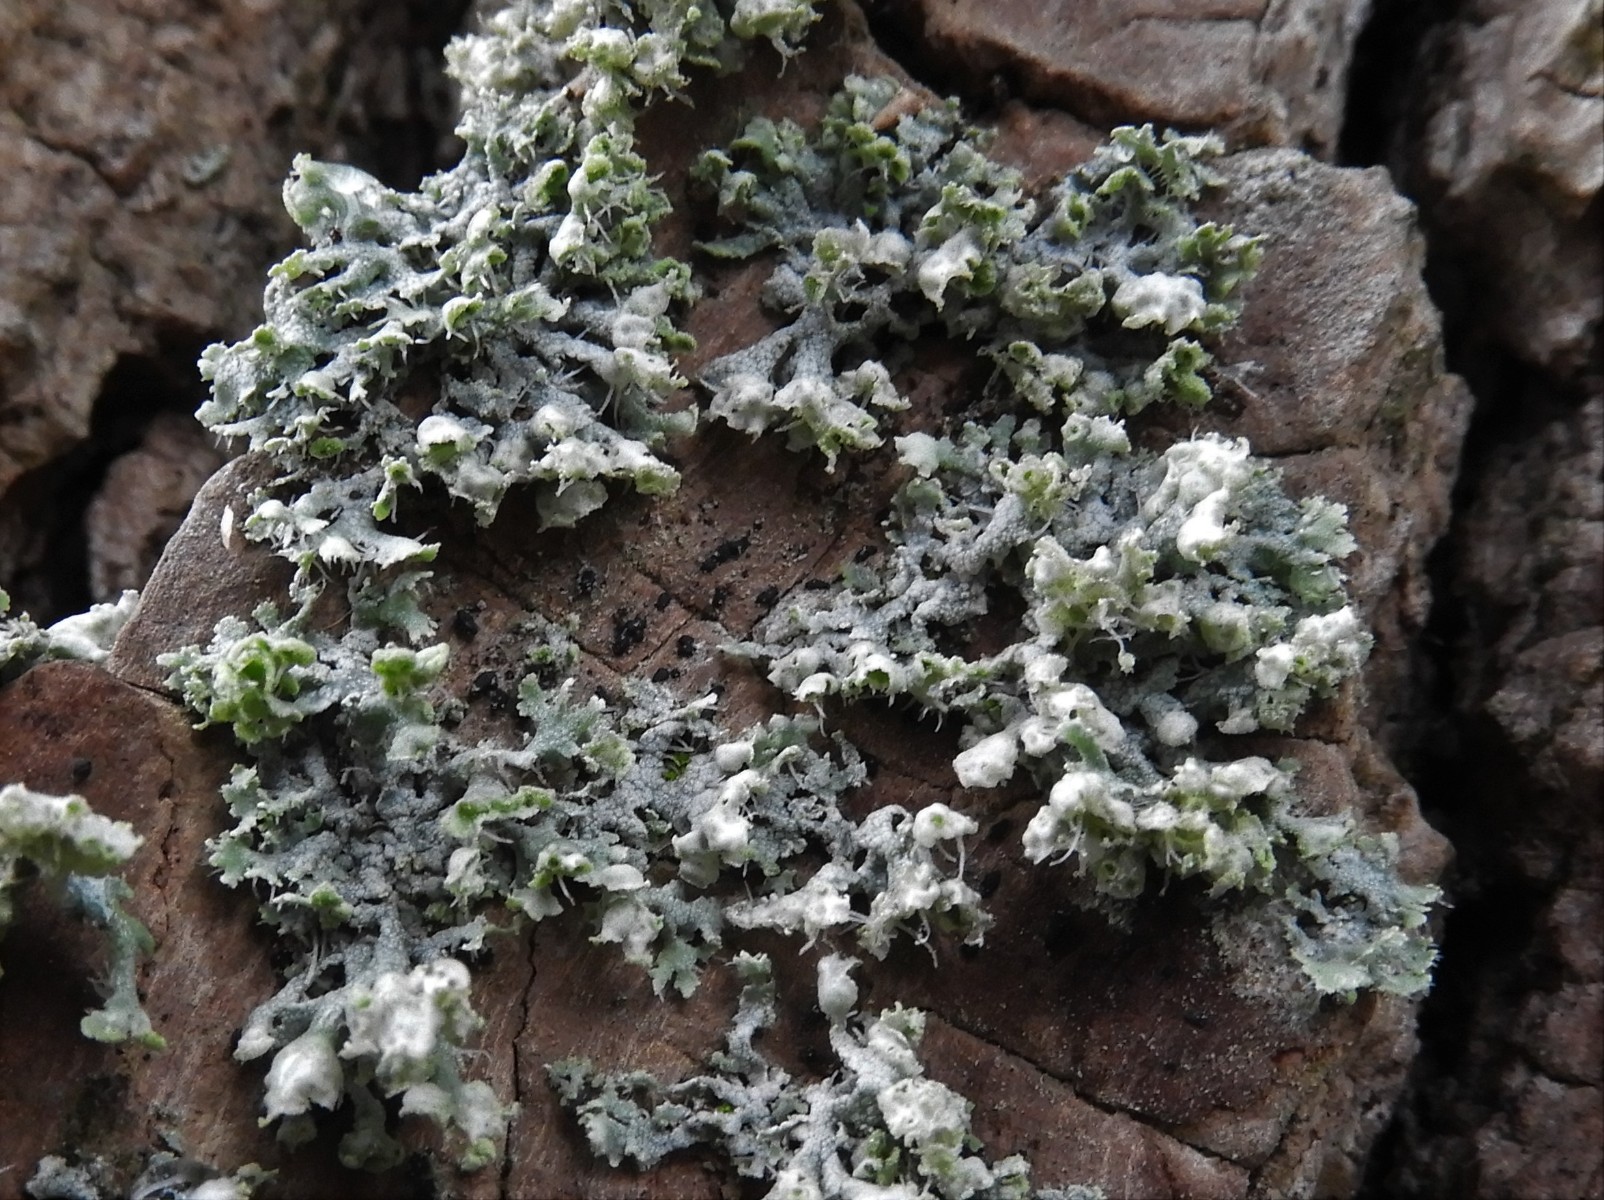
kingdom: Fungi
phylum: Ascomycota
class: Lecanoromycetes
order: Caliciales
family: Physciaceae
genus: Physcia
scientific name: Physcia adscendens
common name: hætte-rosetlav
